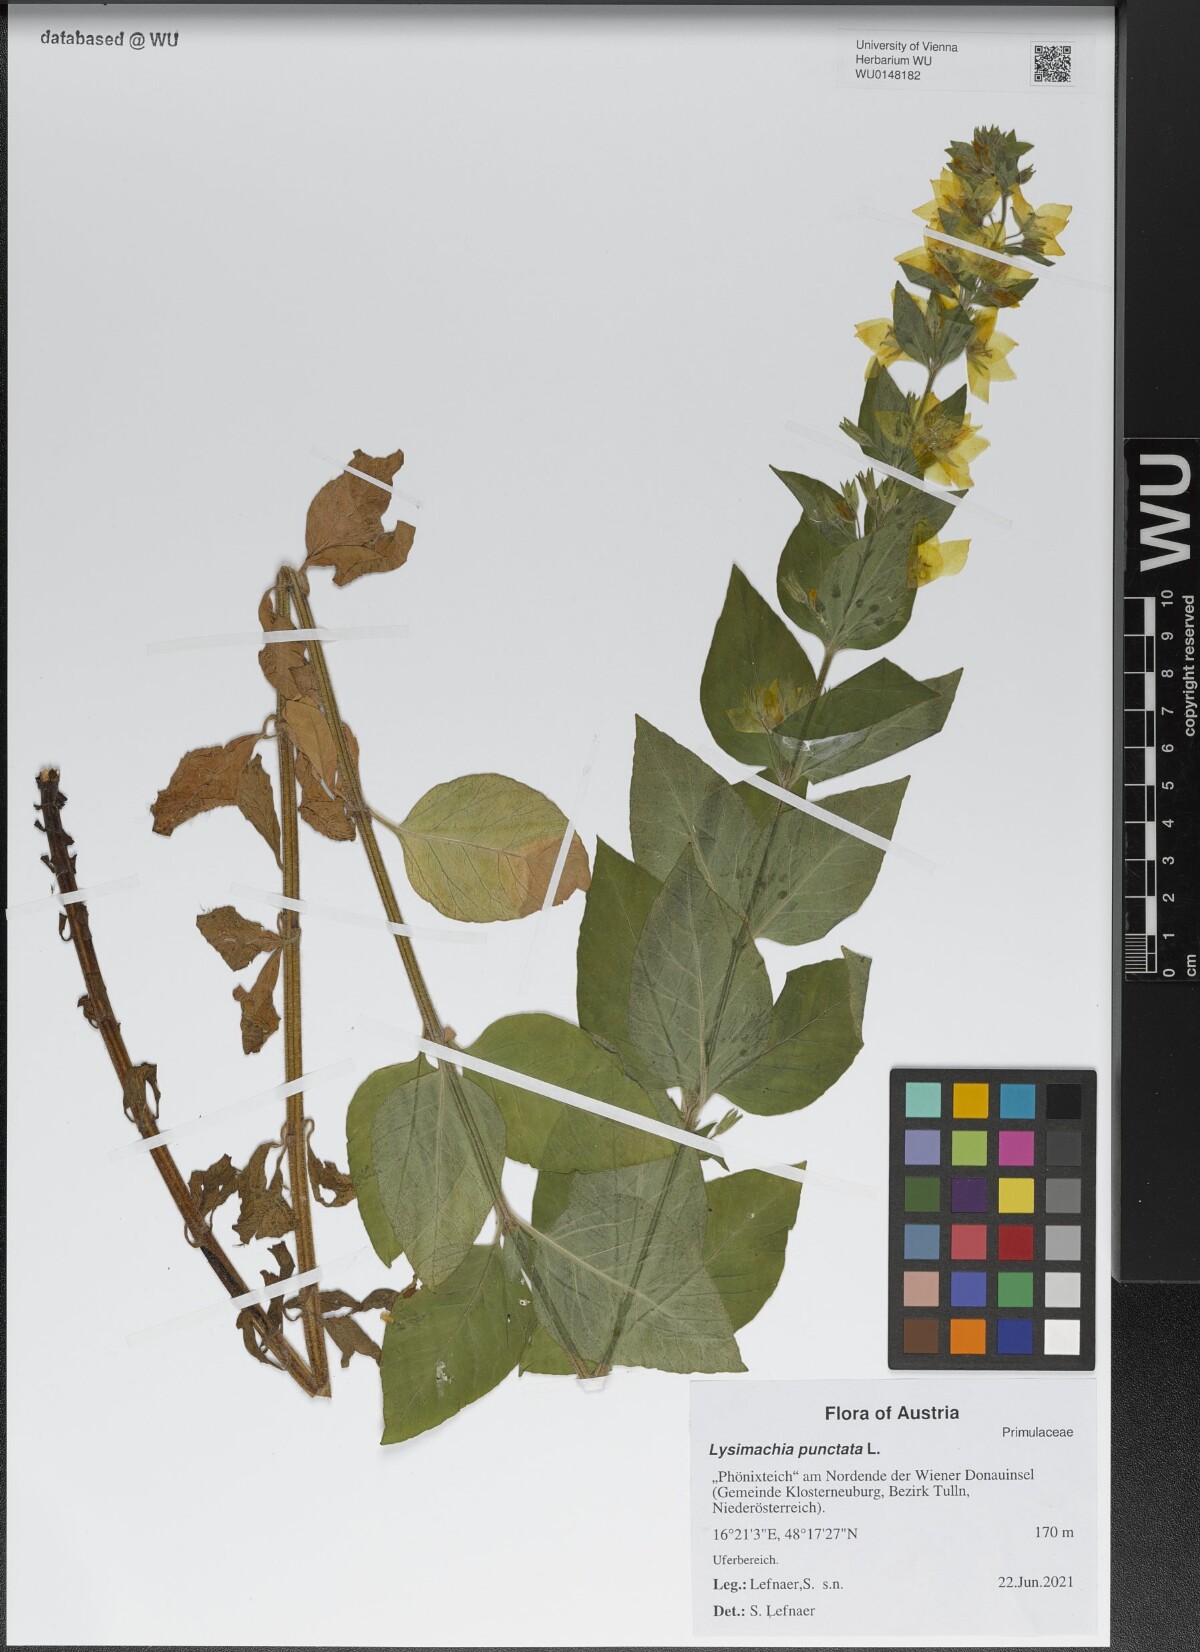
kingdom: Plantae
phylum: Tracheophyta
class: Magnoliopsida
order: Ericales
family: Primulaceae
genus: Lysimachia
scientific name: Lysimachia punctata
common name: Dotted loosestrife
